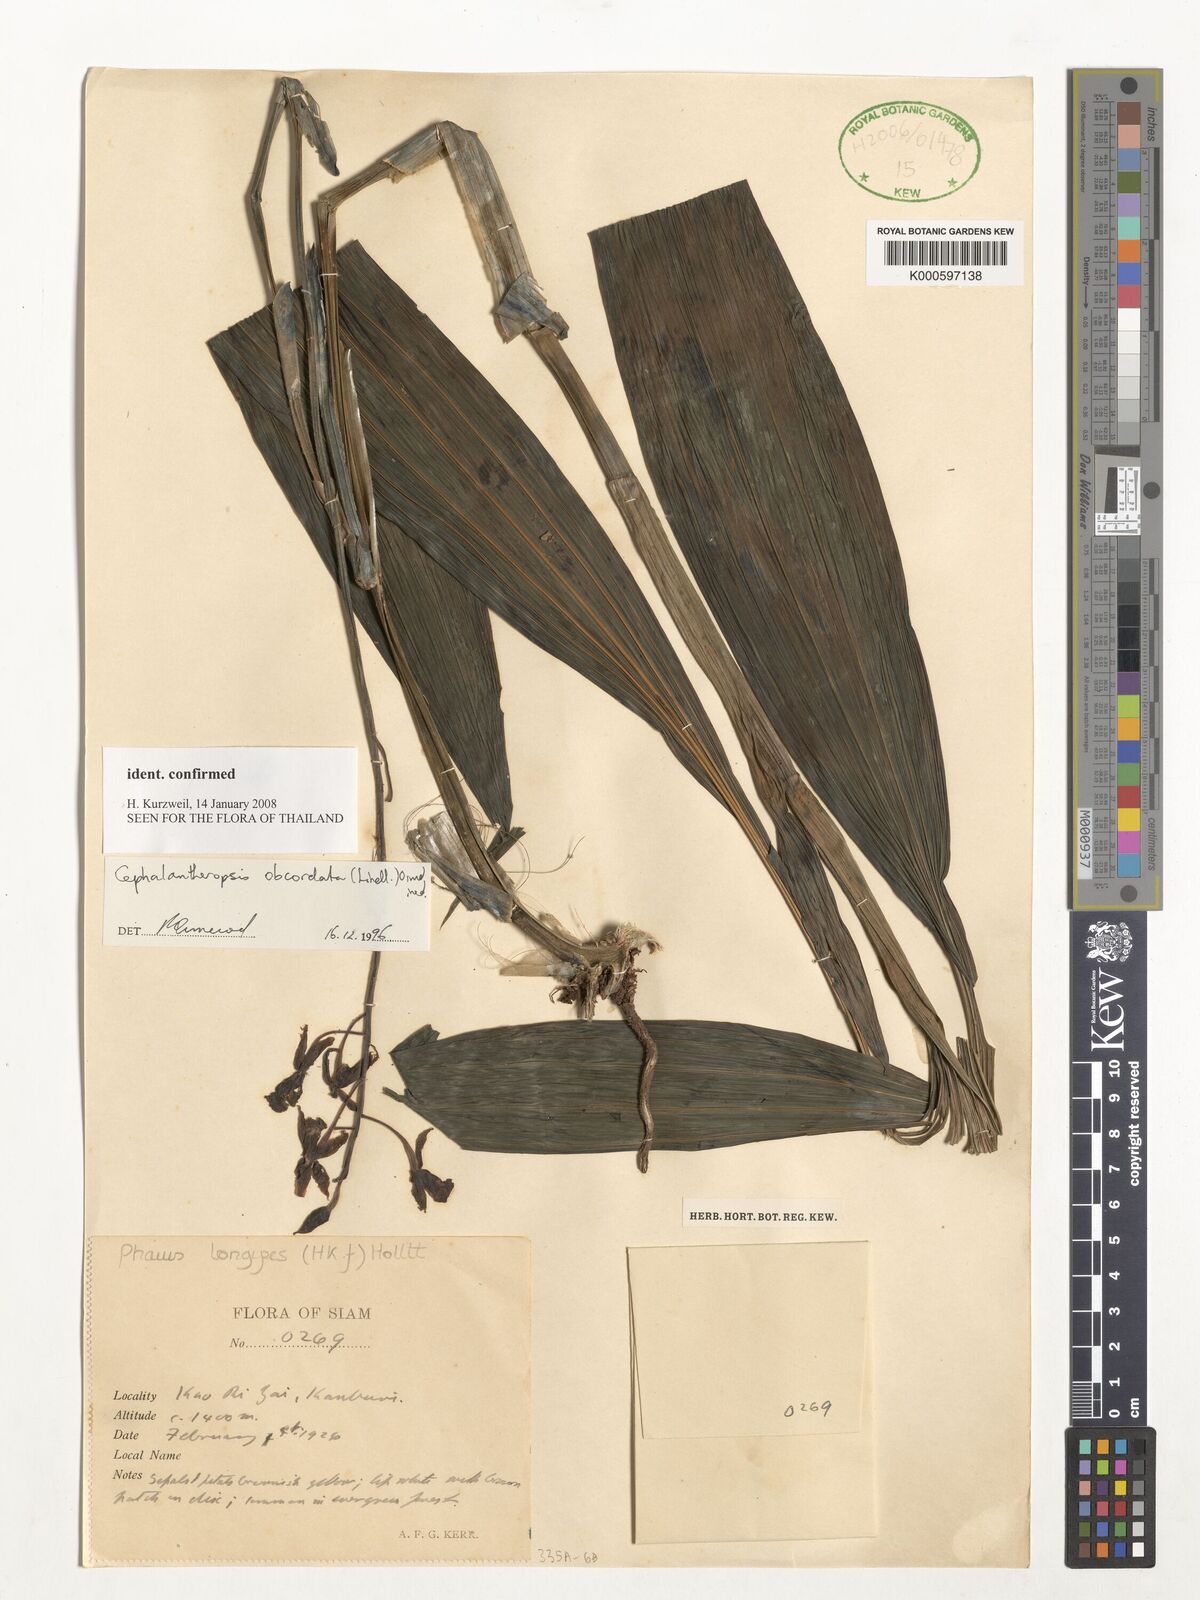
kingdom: Plantae
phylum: Tracheophyta
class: Liliopsida
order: Asparagales
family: Orchidaceae
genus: Calanthe
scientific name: Calanthe obcordata
